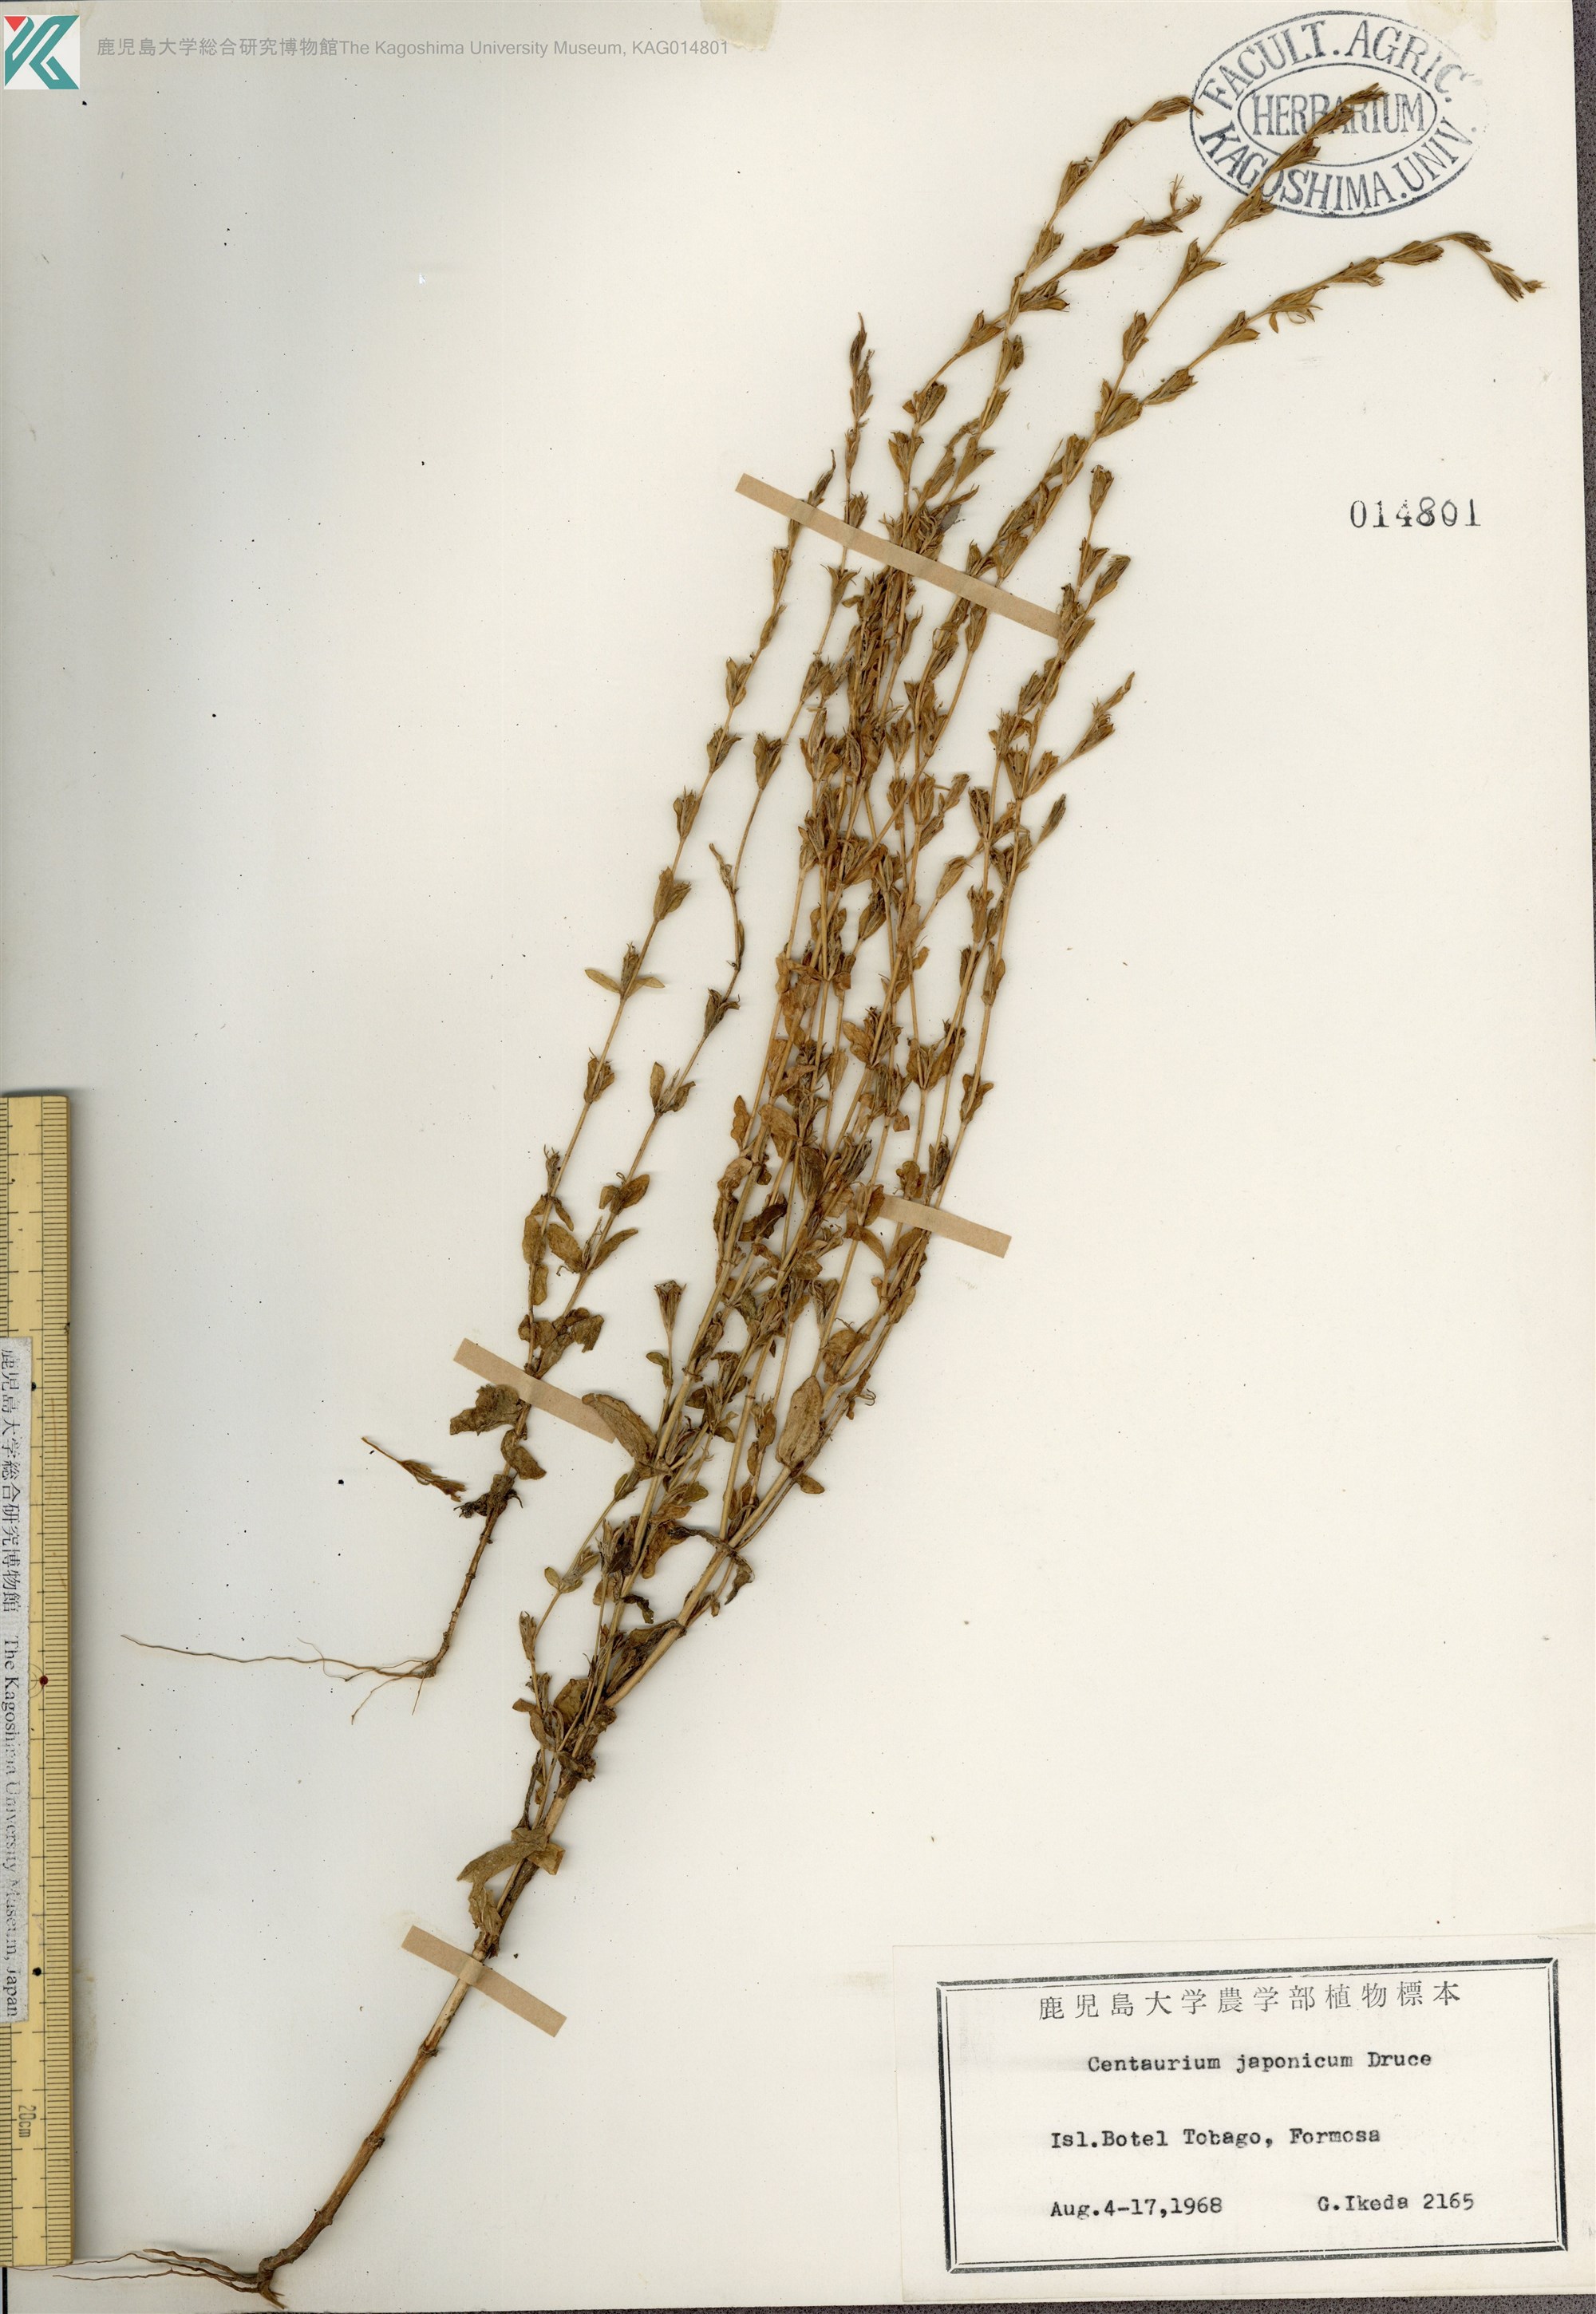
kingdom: Plantae
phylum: Tracheophyta
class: Magnoliopsida
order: Gentianales
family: Gentianaceae
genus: Schenkia
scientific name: Schenkia japonica
